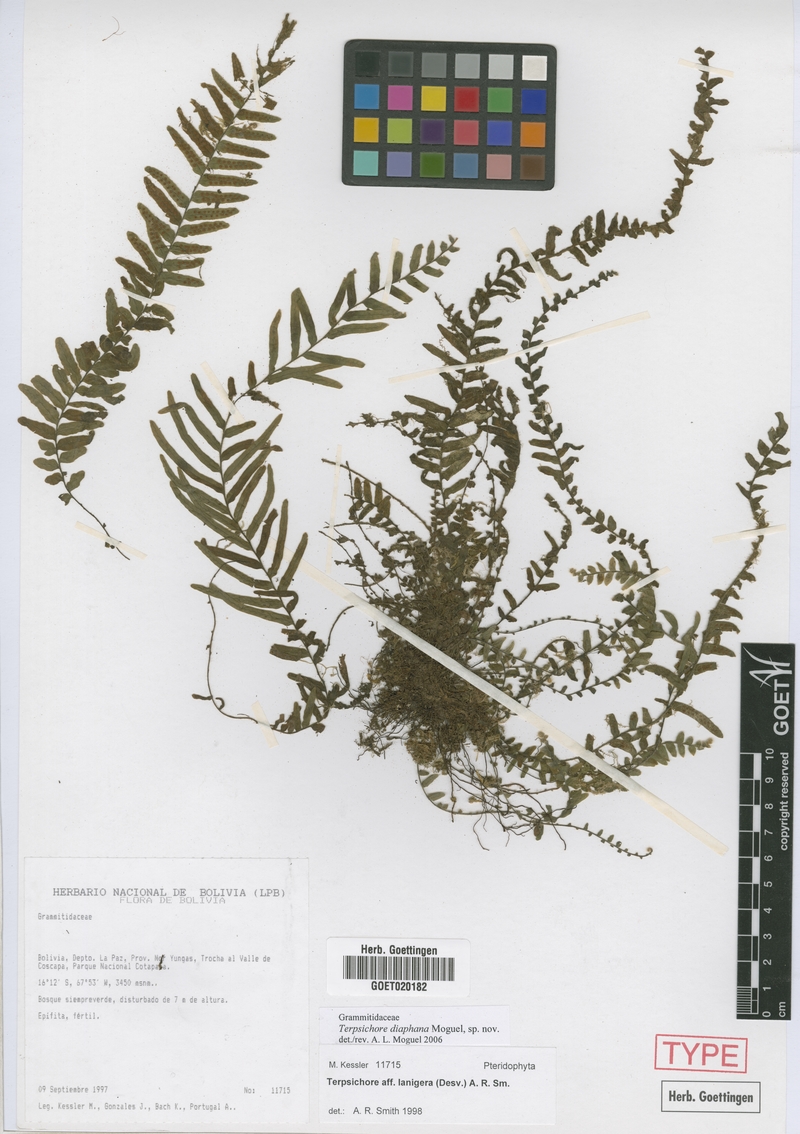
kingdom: Plantae
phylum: Tracheophyta
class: Polypodiopsida
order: Polypodiales
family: Polypodiaceae
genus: Alansmia
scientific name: Alansmia diaphana
